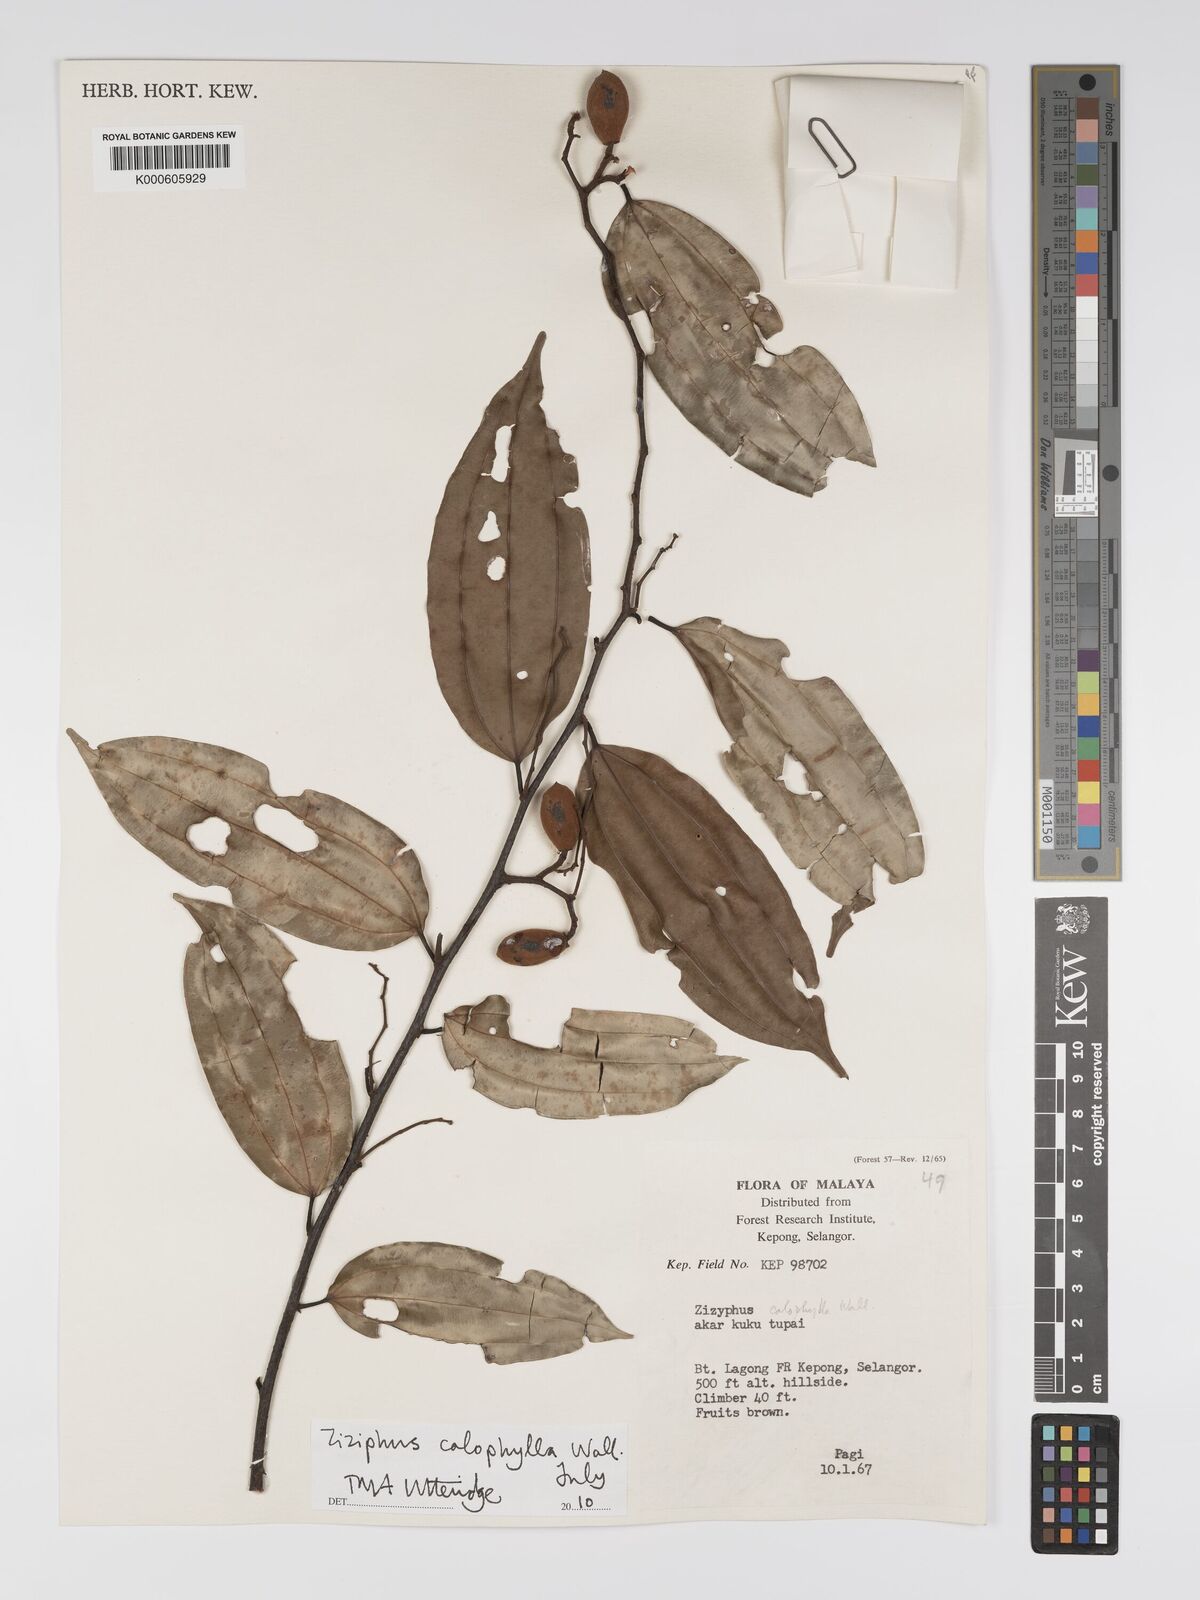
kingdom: Plantae
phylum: Tracheophyta
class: Magnoliopsida
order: Rosales
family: Rhamnaceae
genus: Ziziphus
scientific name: Ziziphus calophylla
